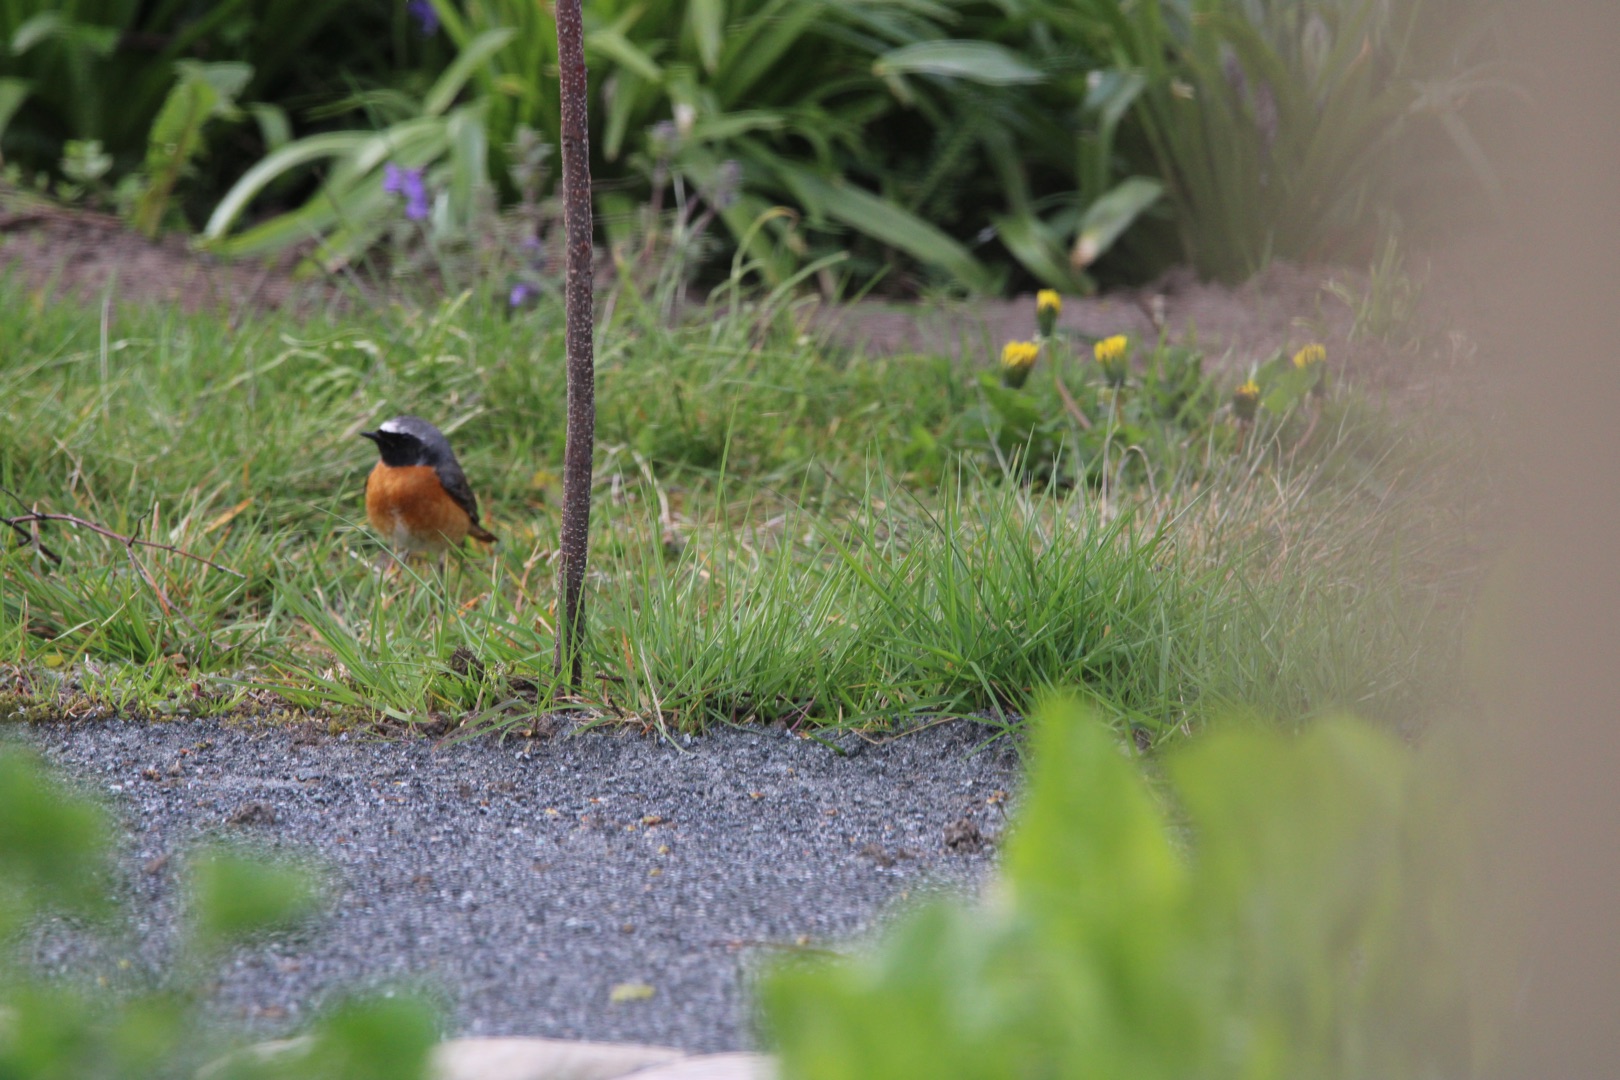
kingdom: Animalia
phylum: Chordata
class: Aves
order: Passeriformes
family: Muscicapidae
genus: Phoenicurus
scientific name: Phoenicurus phoenicurus
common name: Rødstjert
